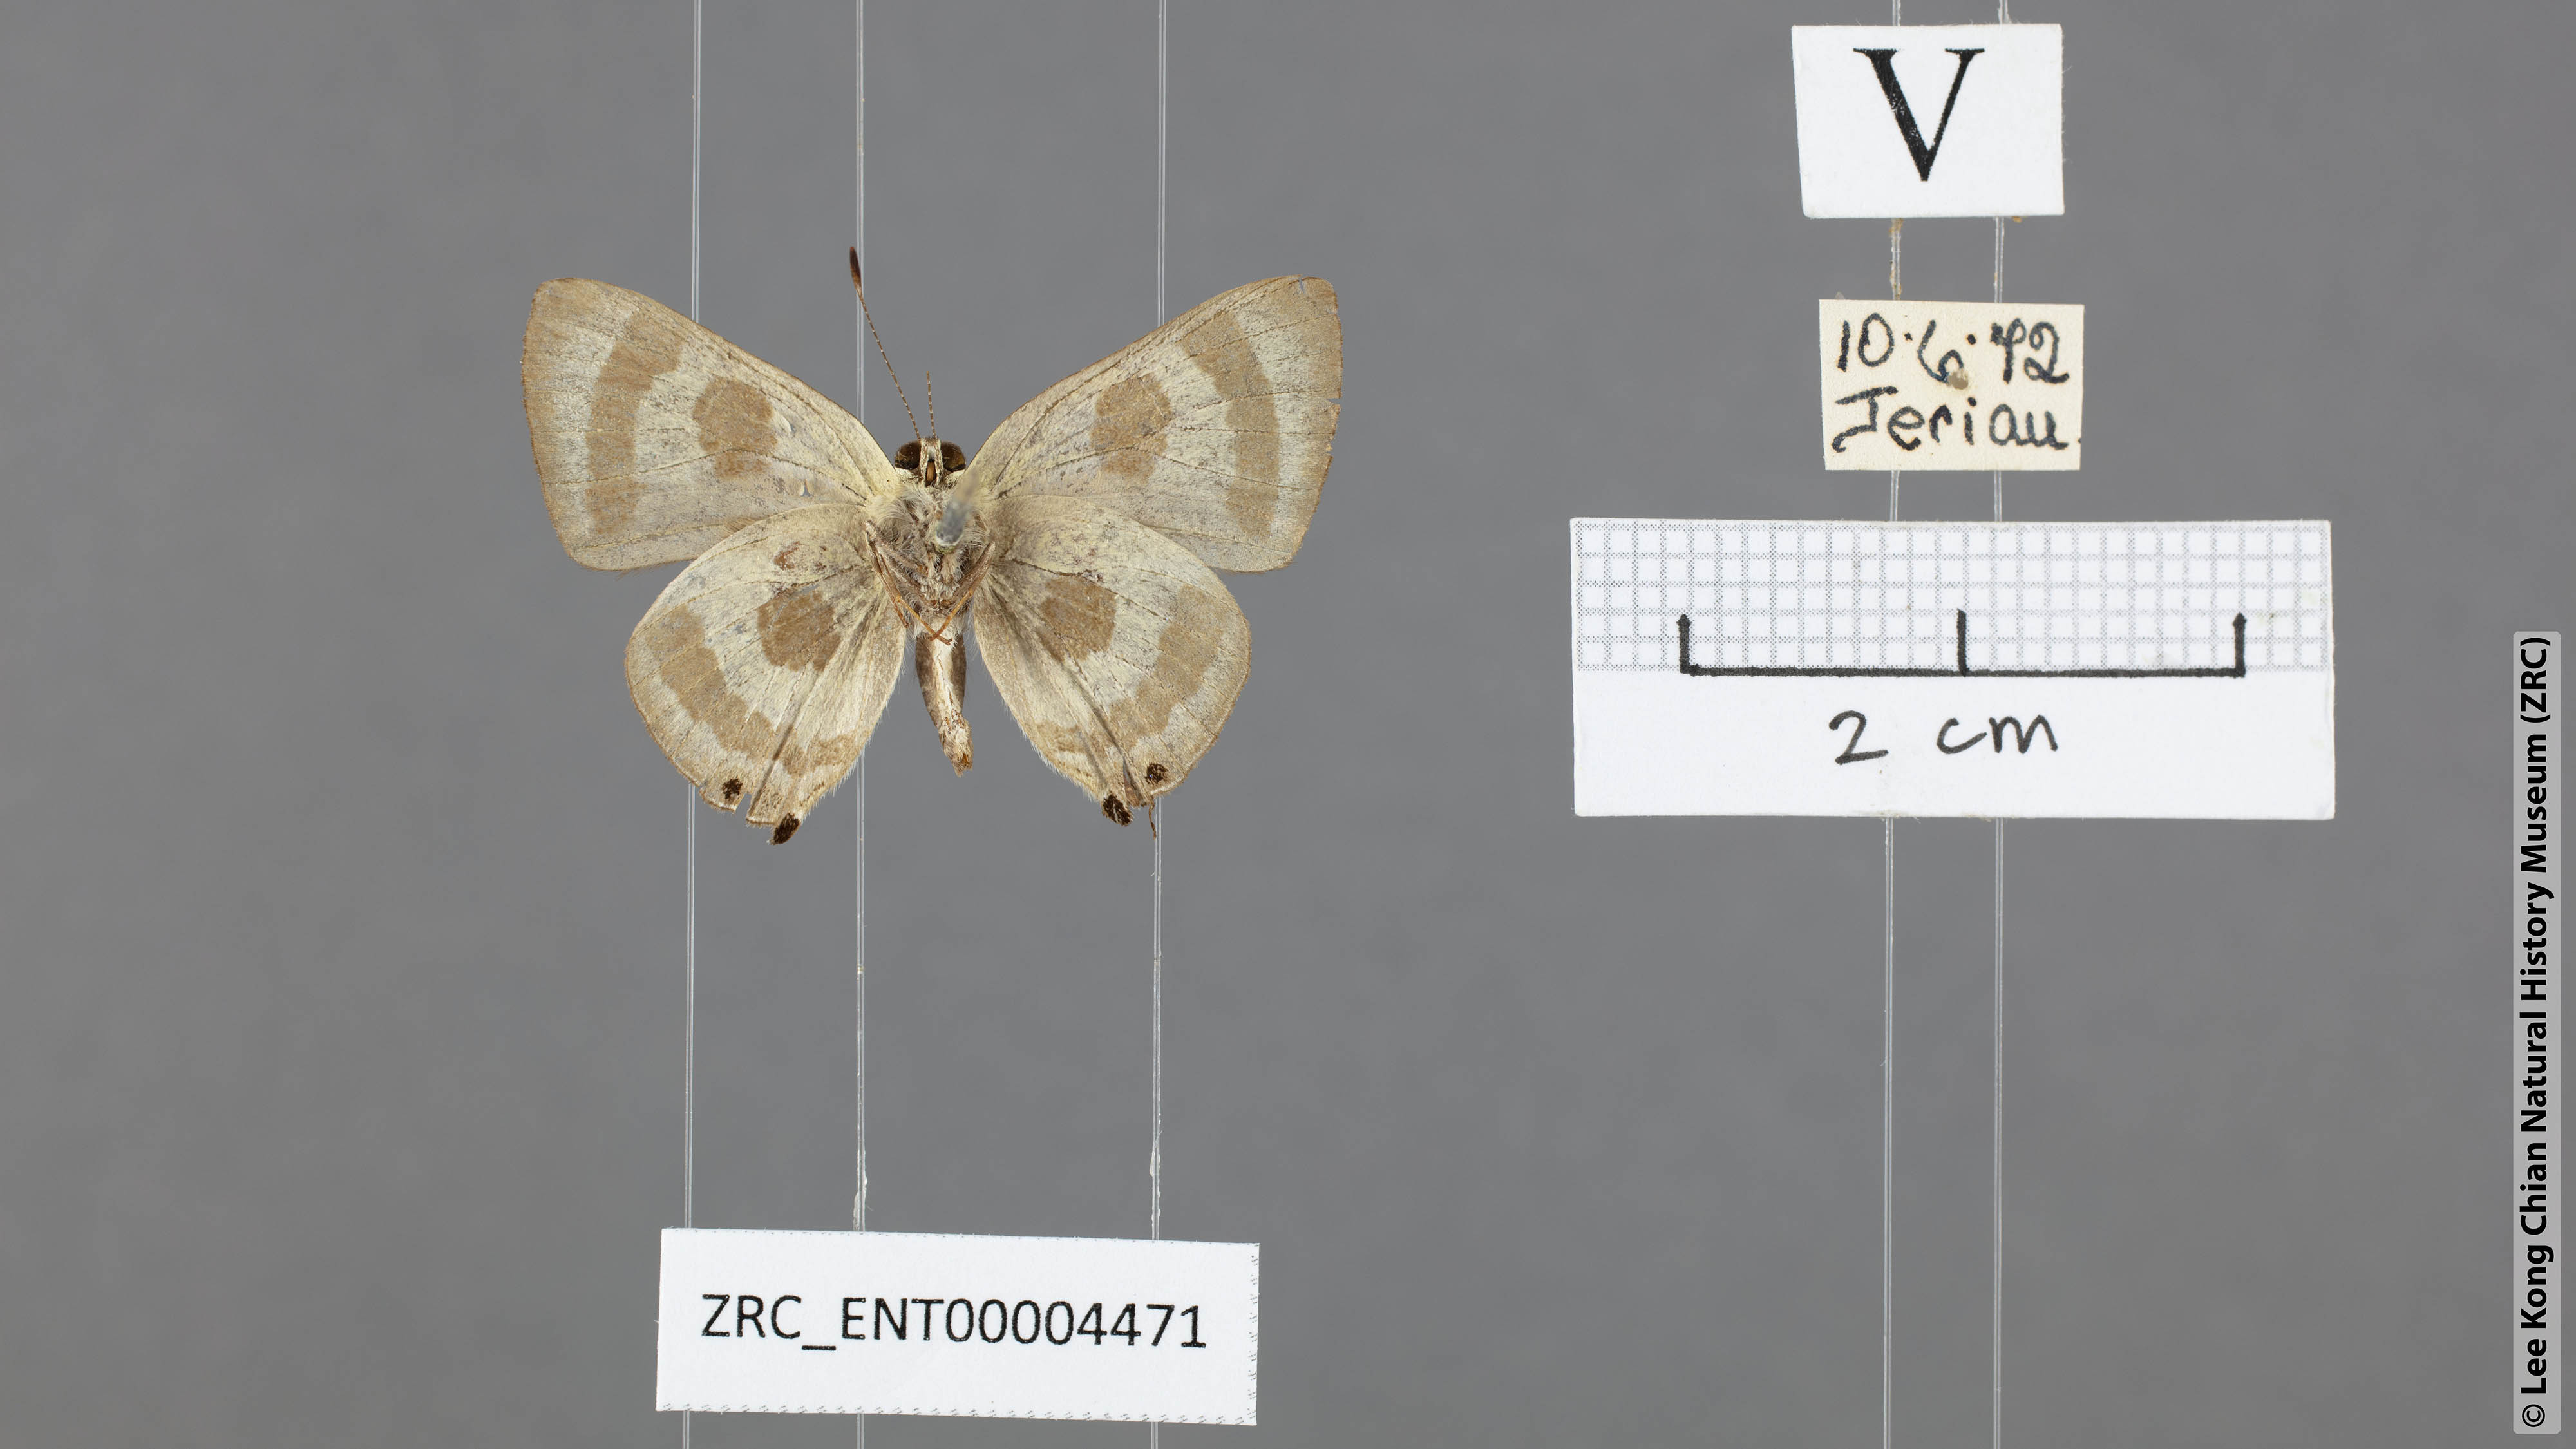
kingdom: Animalia
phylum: Arthropoda
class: Insecta
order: Lepidoptera
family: Lycaenidae
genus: Rapala
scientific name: Rapala abnormis
